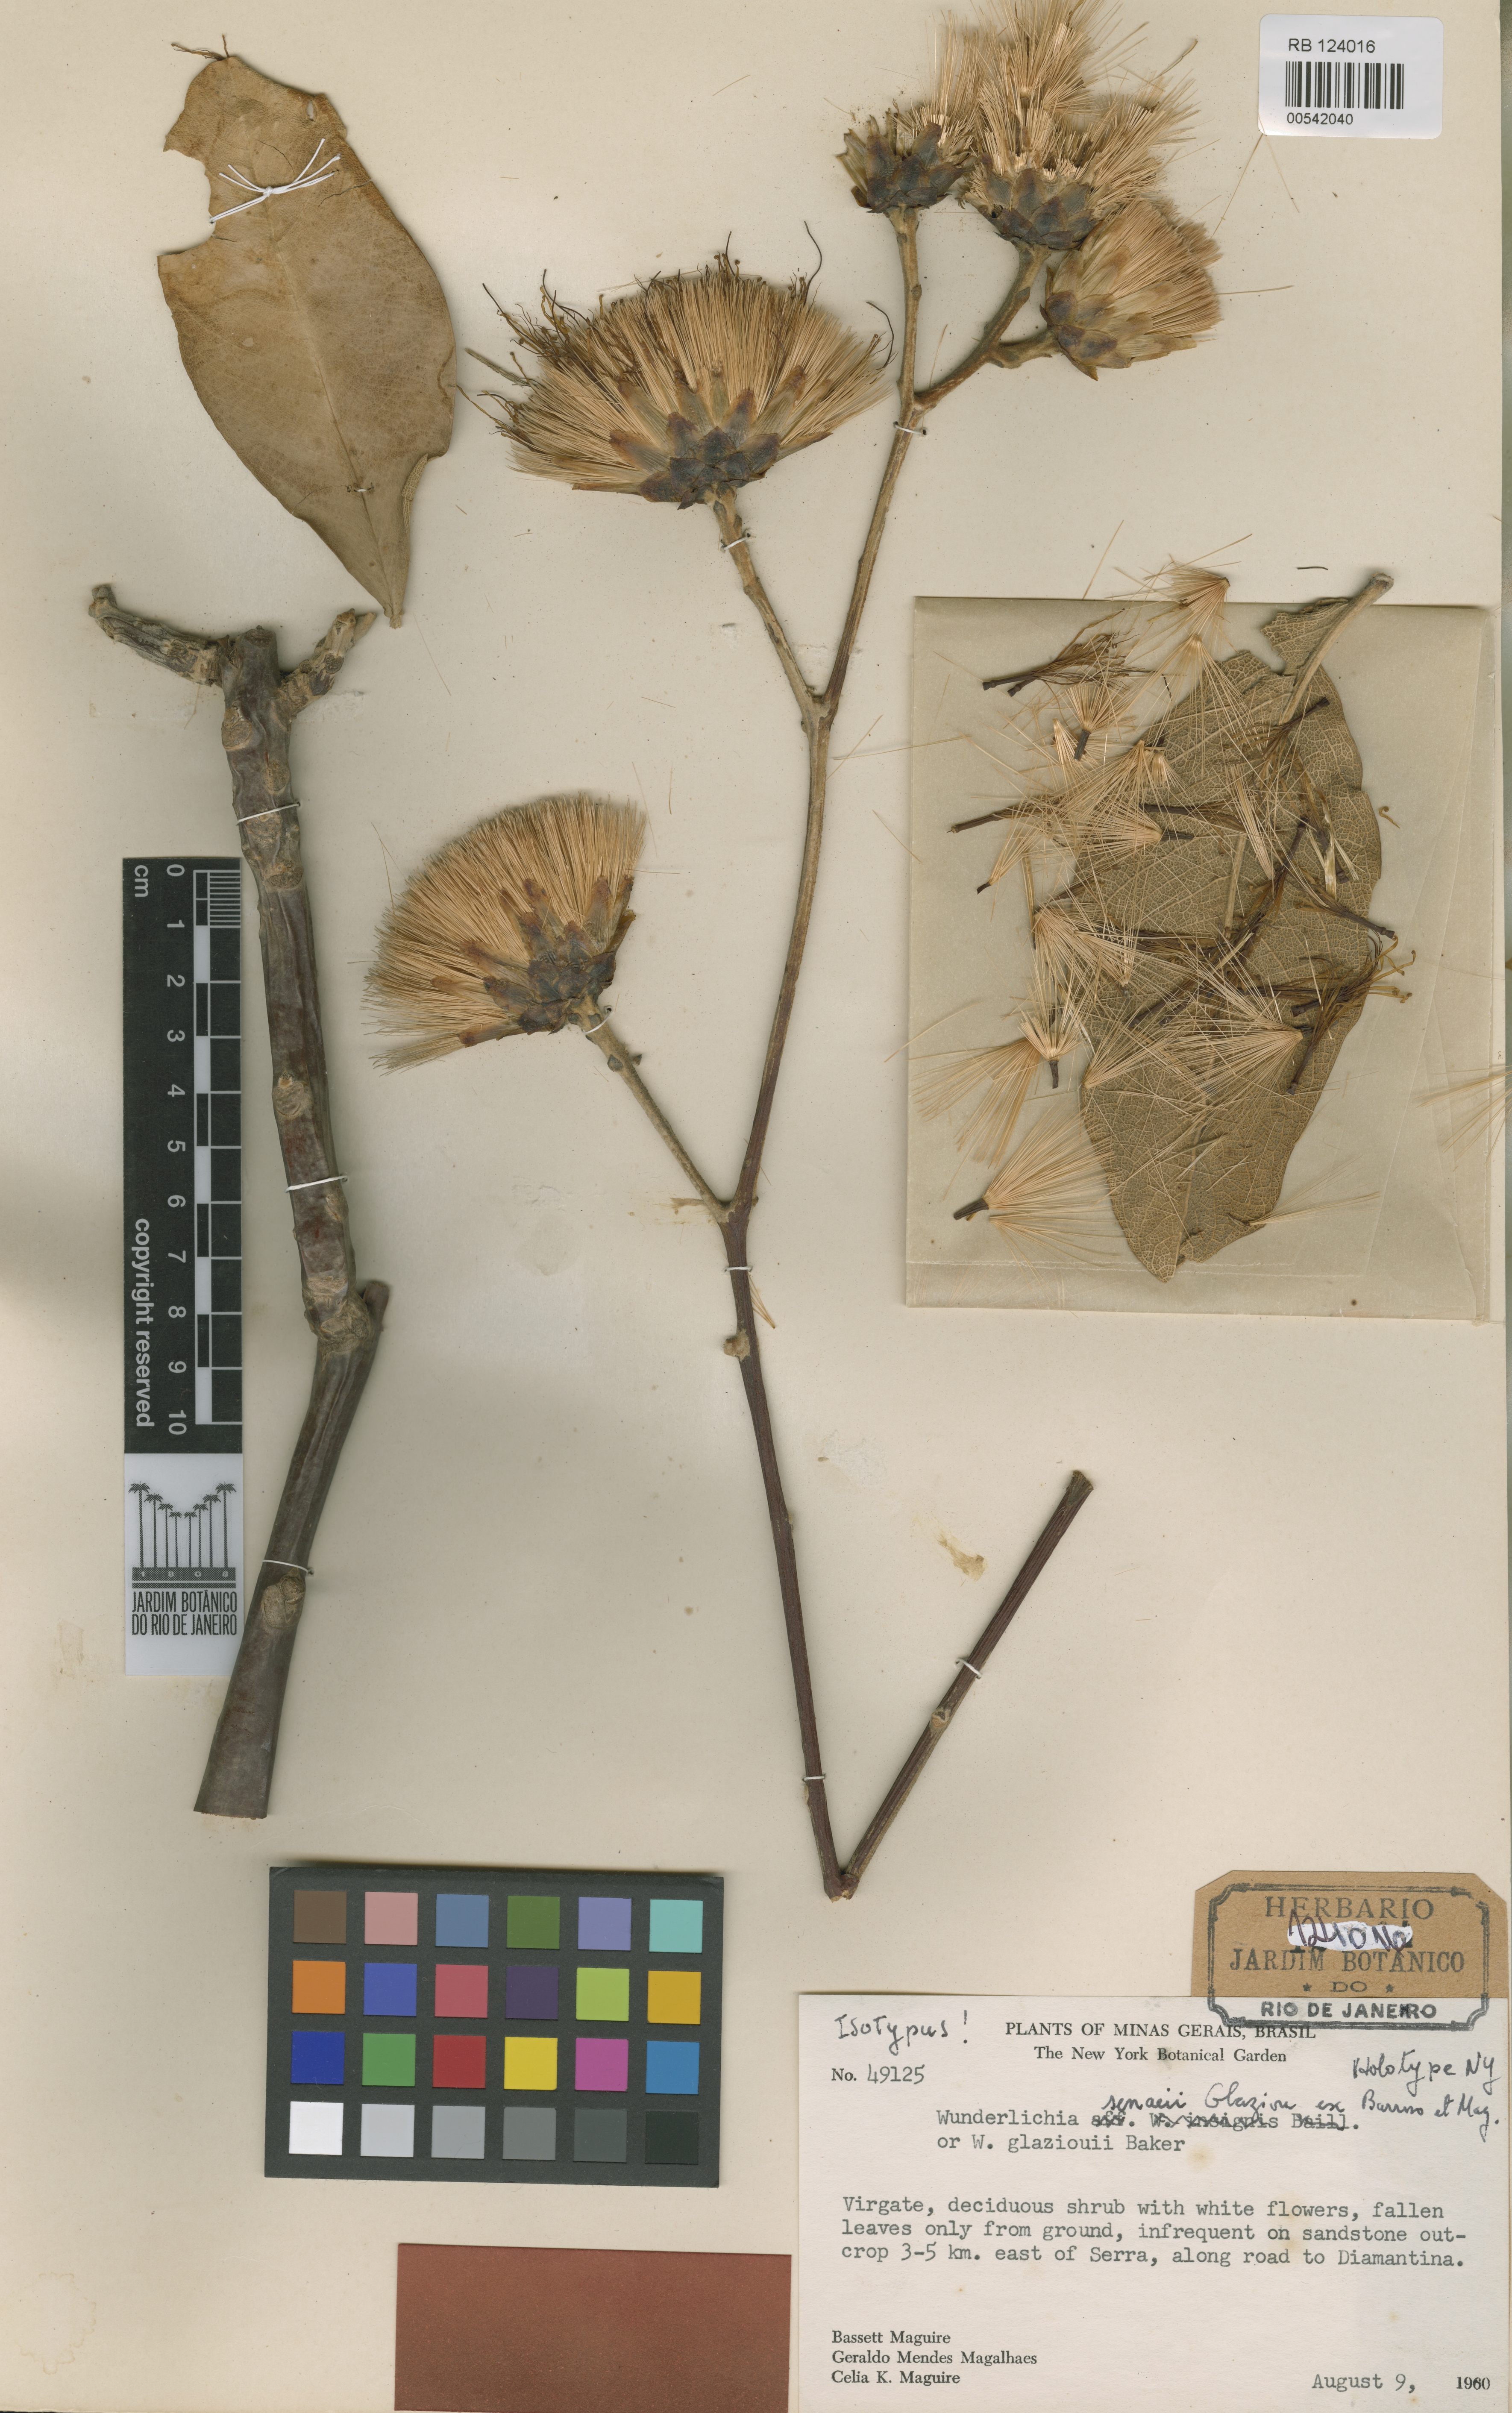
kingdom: Plantae
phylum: Tracheophyta
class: Magnoliopsida
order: Asterales
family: Asteraceae
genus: Wunderlichia
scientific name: Wunderlichia senaeii
